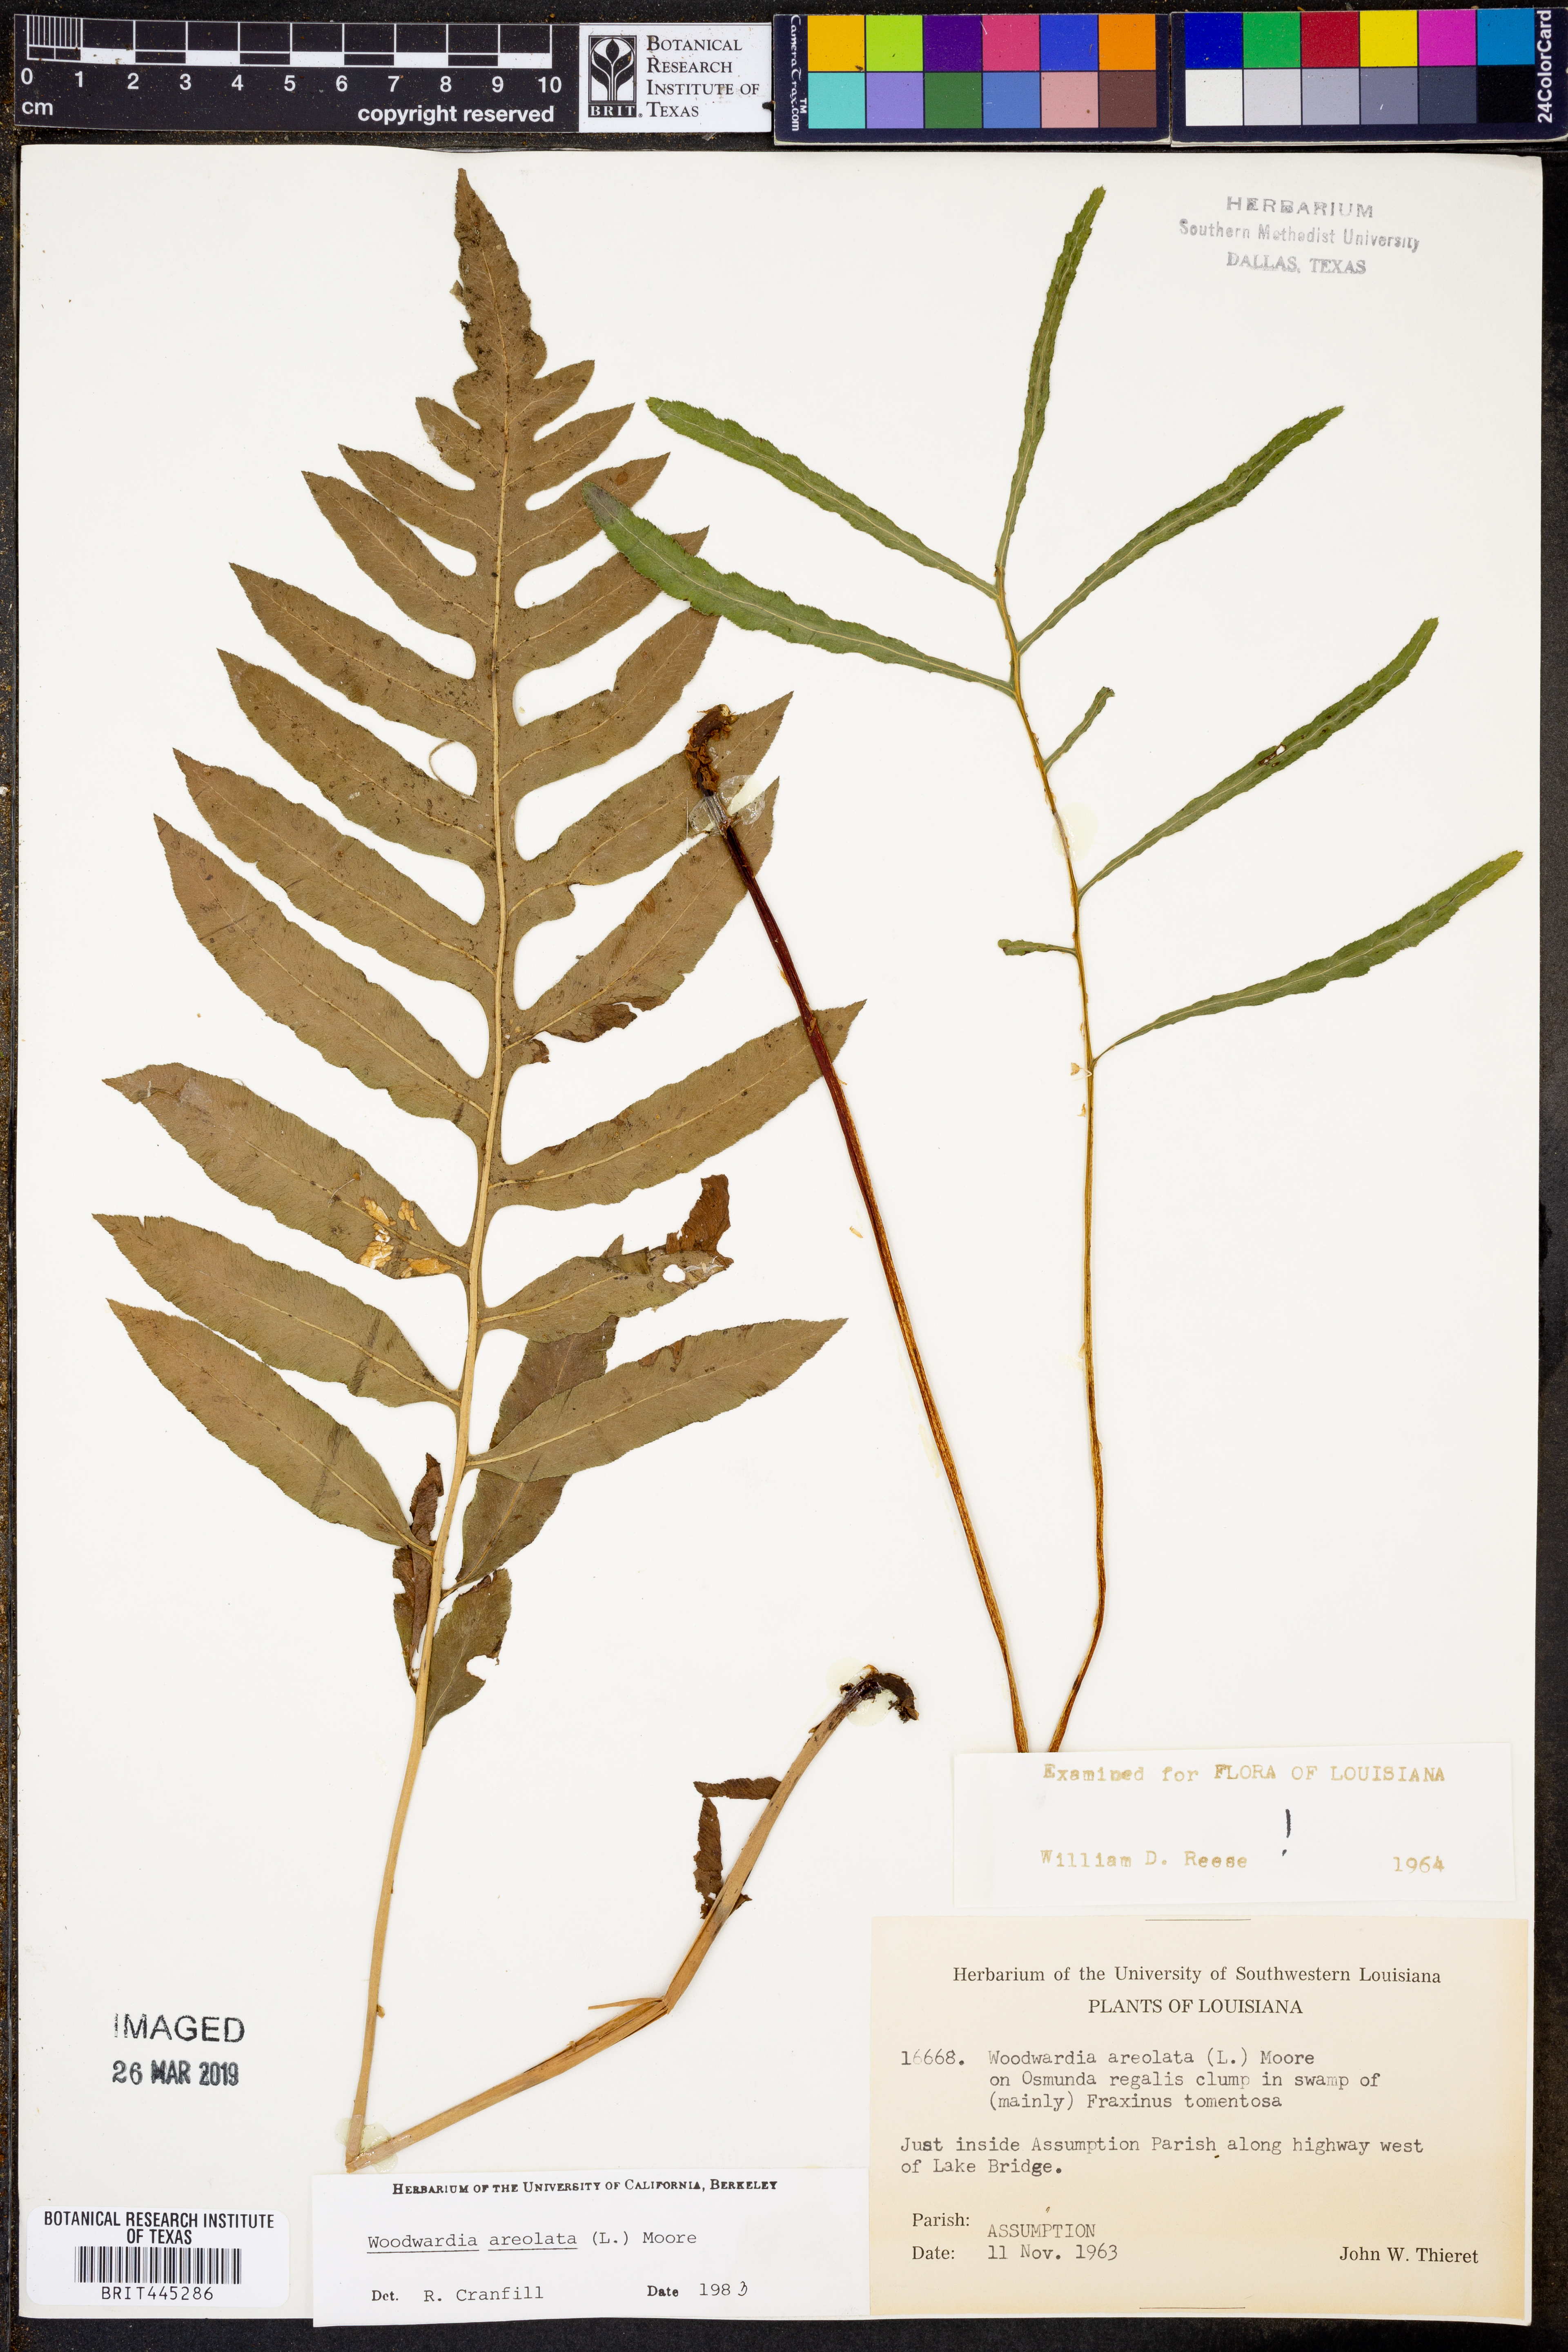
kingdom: Plantae
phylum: Tracheophyta
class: Polypodiopsida
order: Polypodiales
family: Blechnaceae
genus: Lorinseria
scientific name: Lorinseria areolata
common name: Dwarf chain fern
